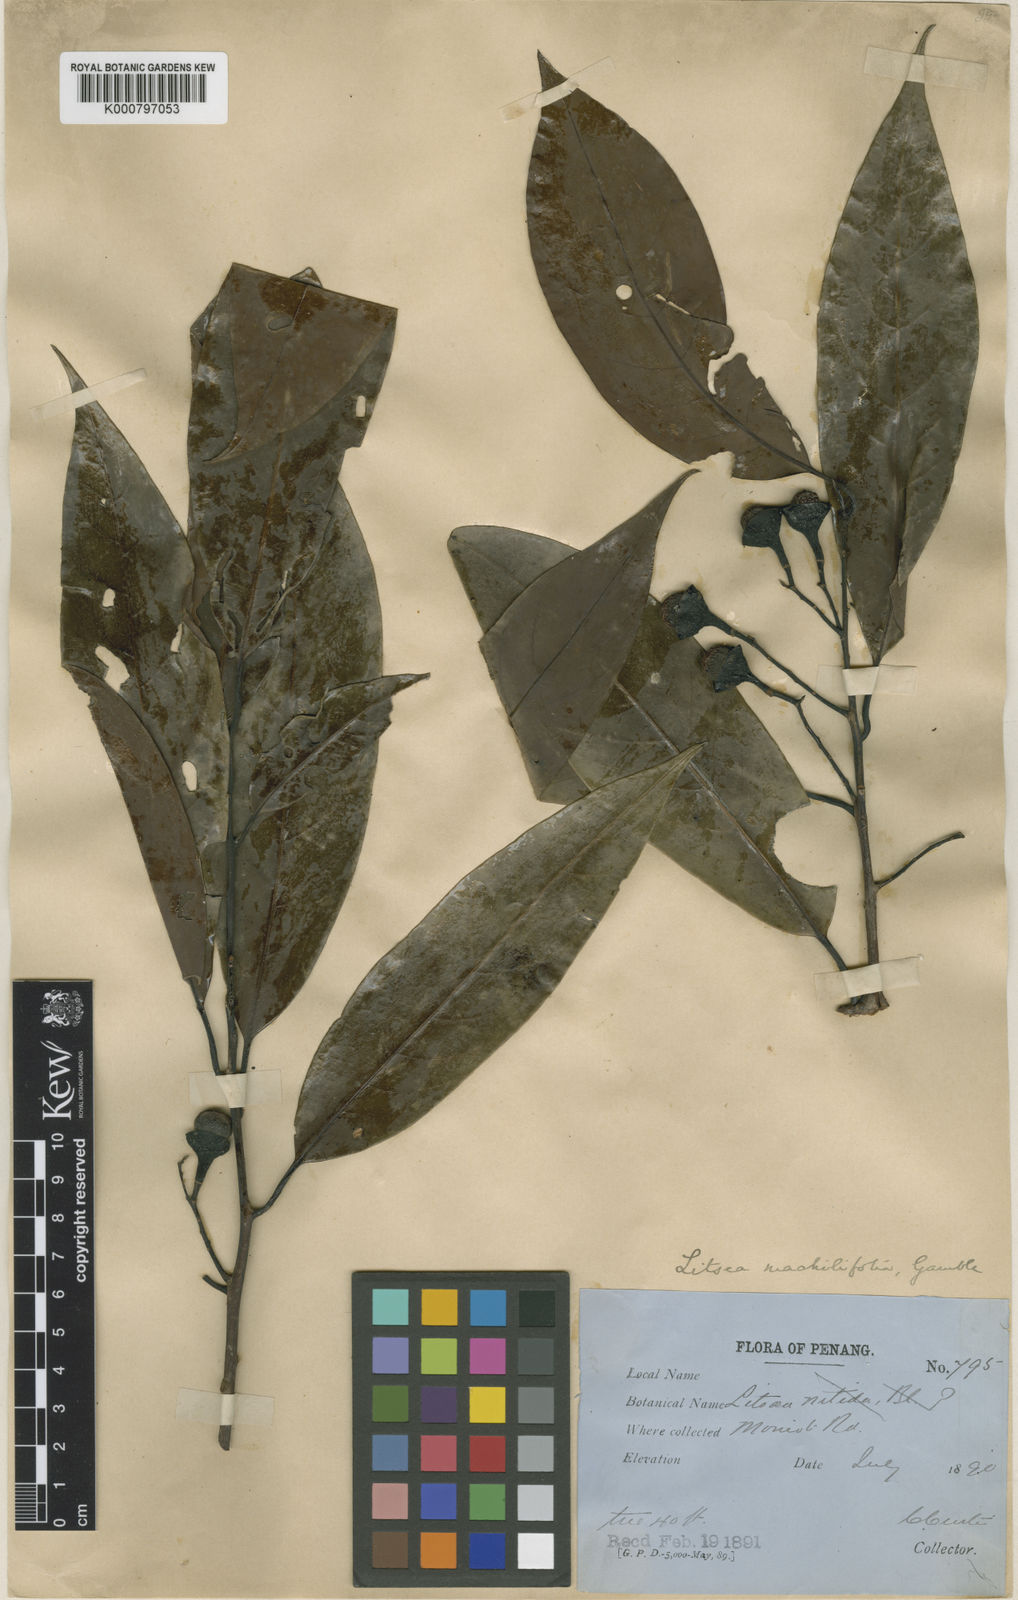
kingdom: Plantae
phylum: Tracheophyta
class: Magnoliopsida
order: Laurales
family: Lauraceae
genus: Litsea
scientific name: Litsea machilifolia
